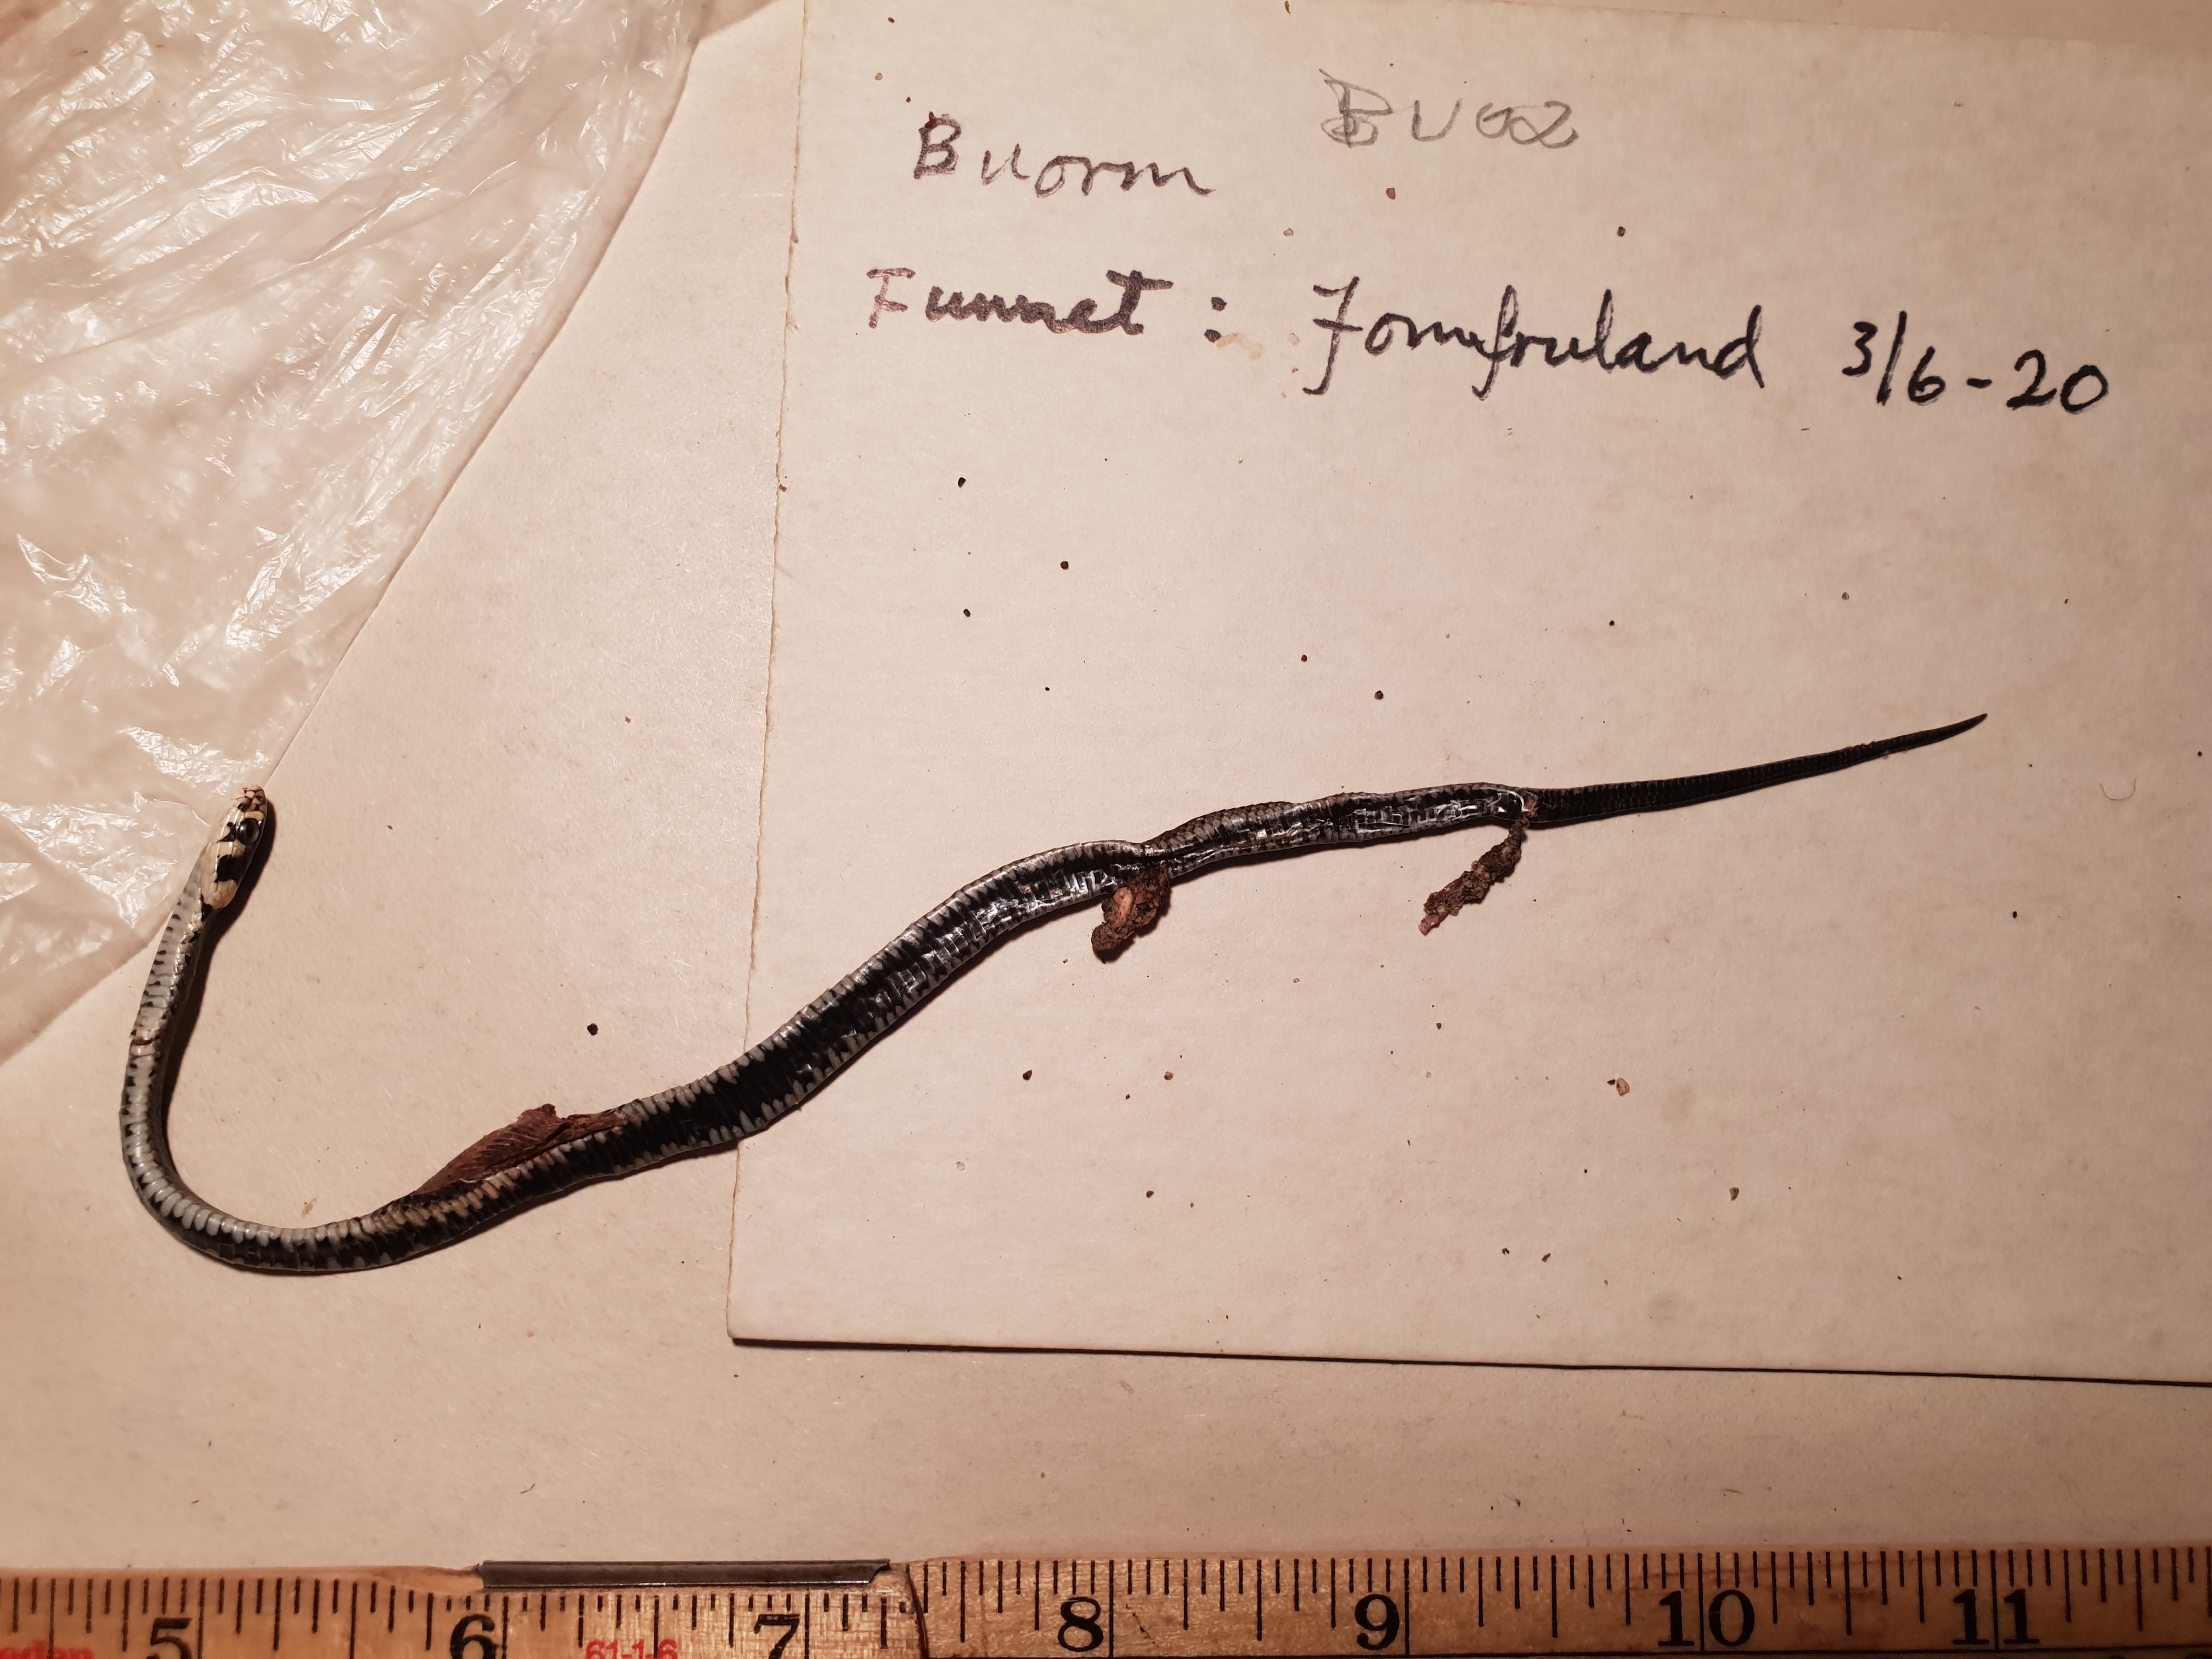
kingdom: Animalia
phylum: Chordata
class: Squamata
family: Colubridae
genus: Natrix
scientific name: Natrix natrix
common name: Grass snake
